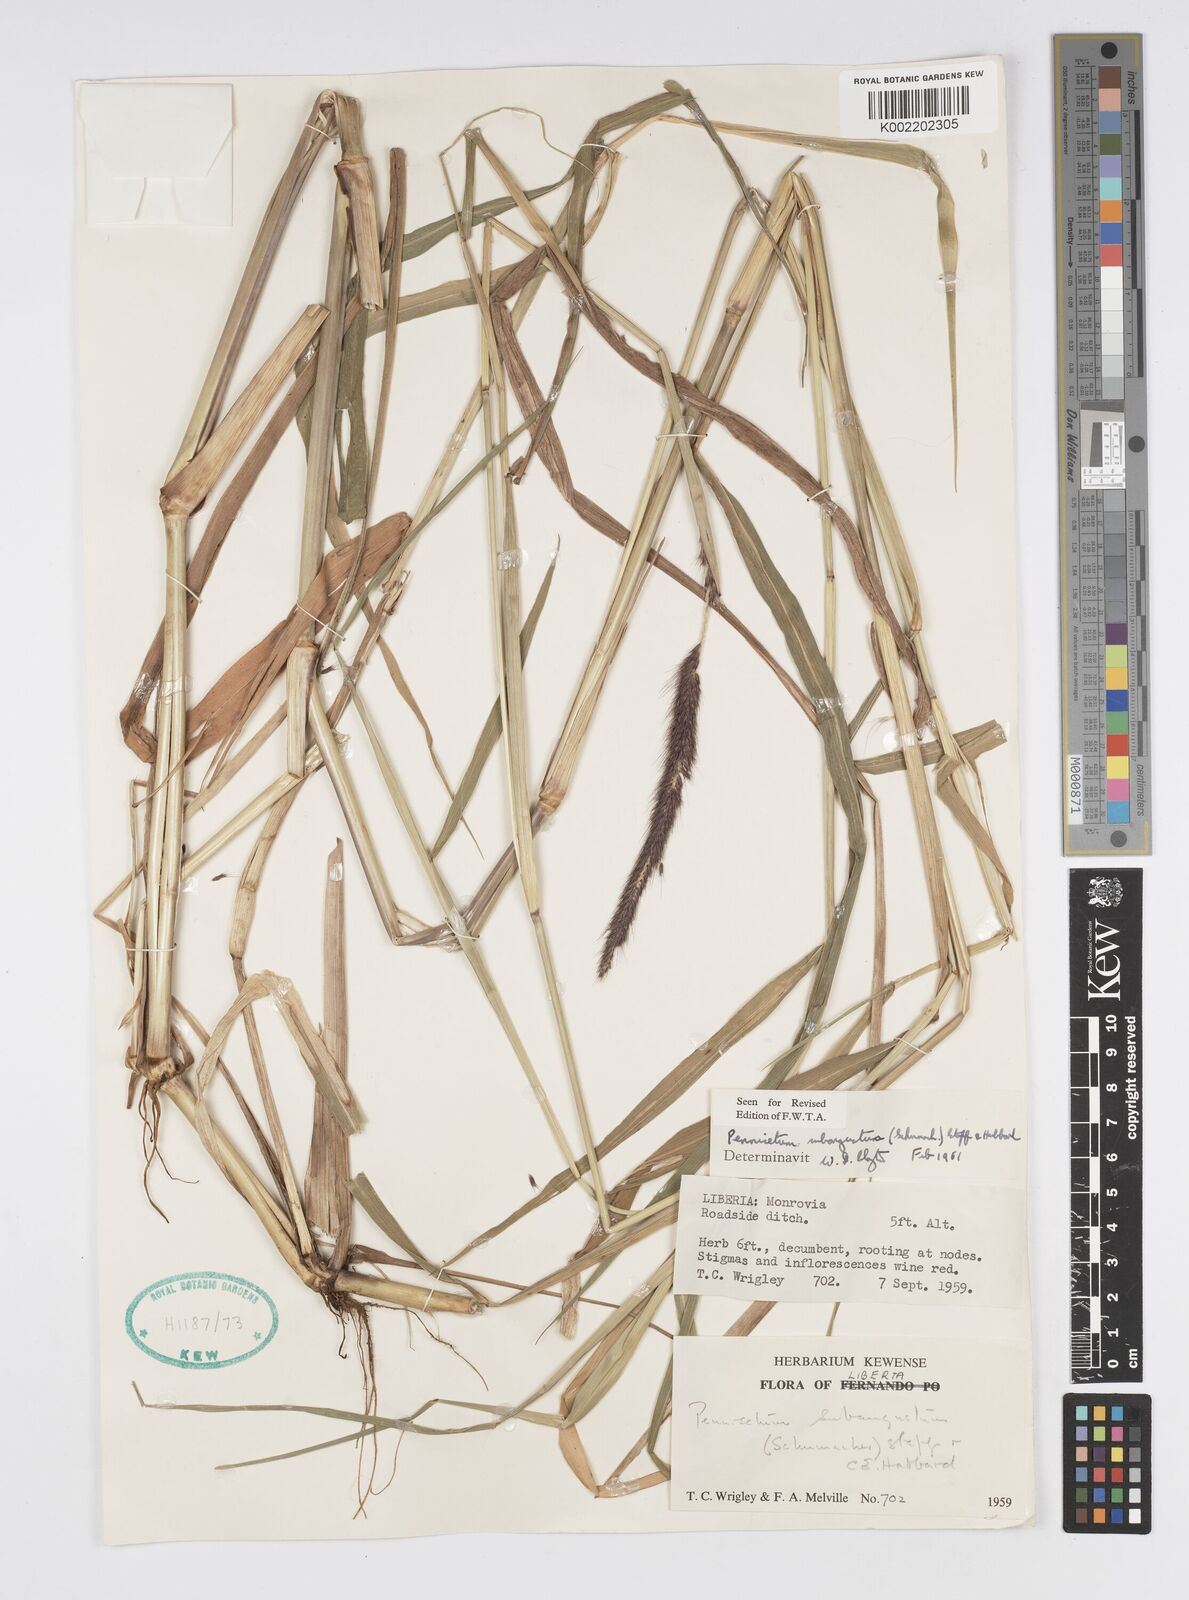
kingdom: Plantae
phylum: Tracheophyta
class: Liliopsida
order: Poales
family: Poaceae
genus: Setaria
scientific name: Setaria parviflora
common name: Knotroot bristle-grass
